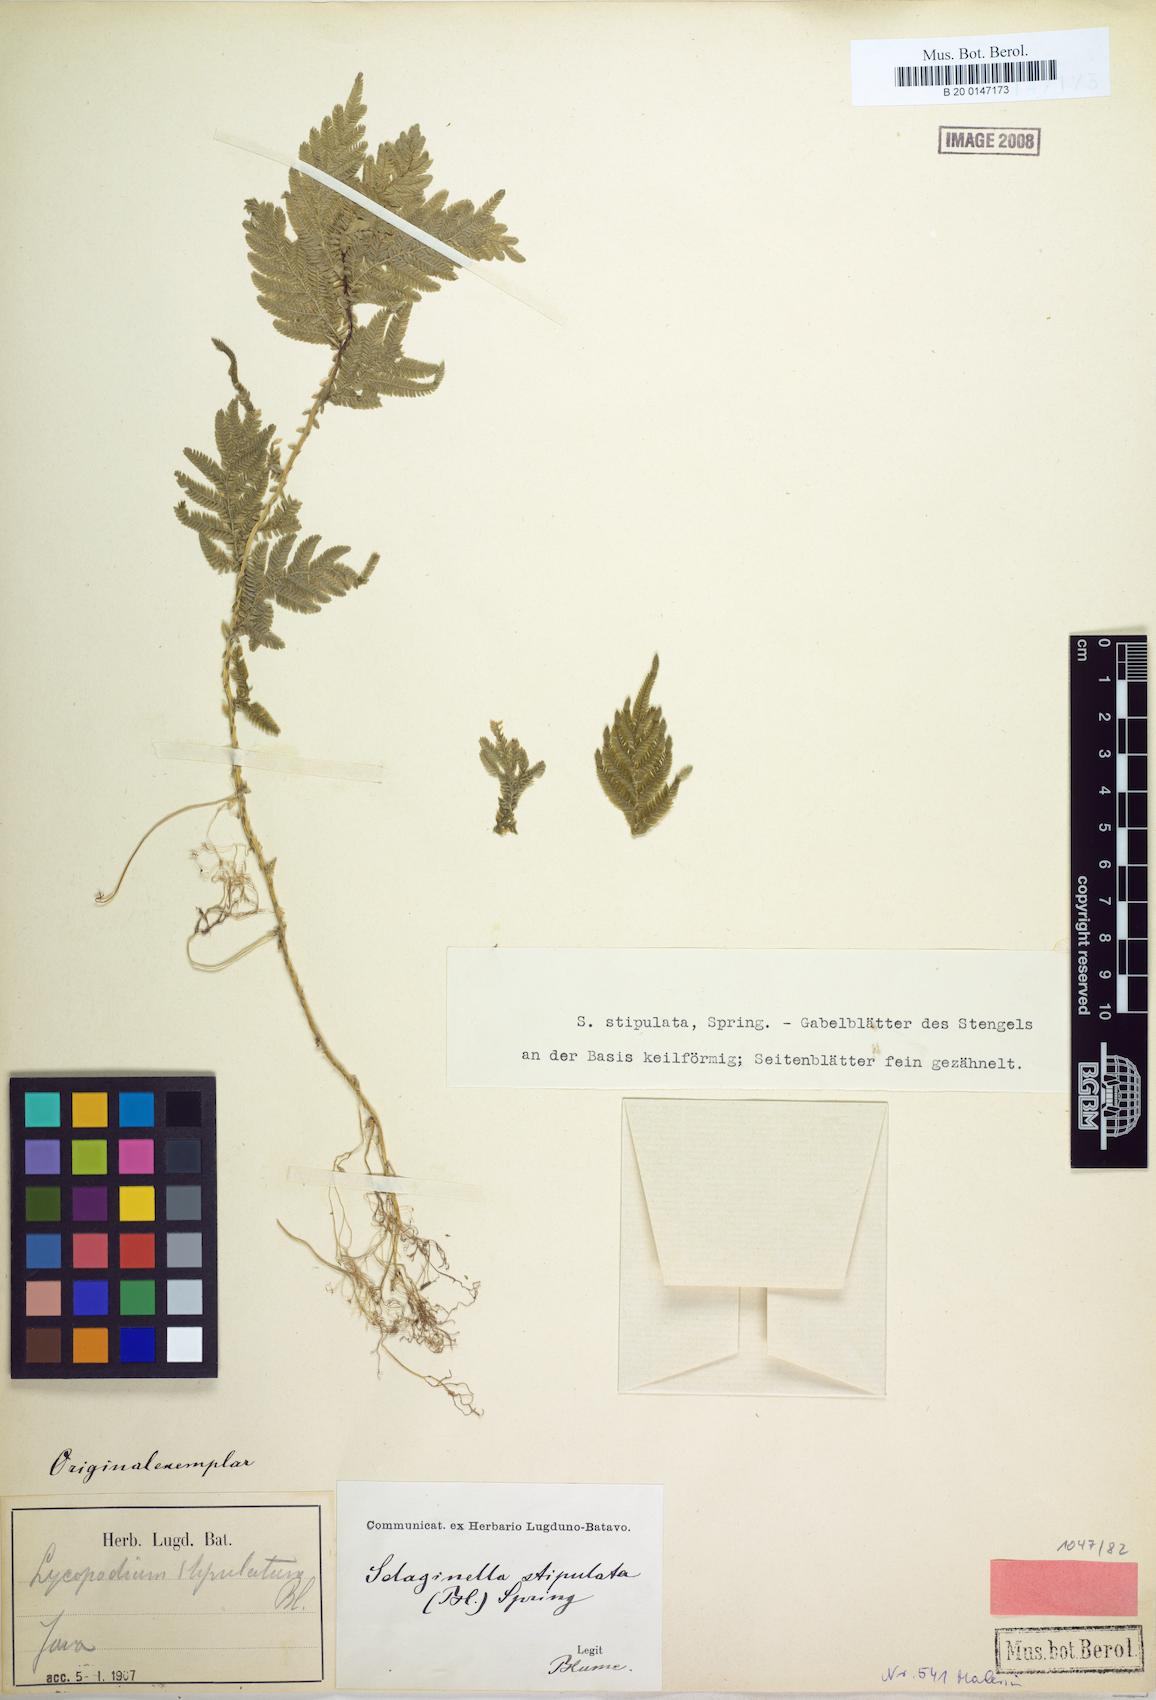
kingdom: Plantae
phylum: Tracheophyta
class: Lycopodiopsida
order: Selaginellales
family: Selaginellaceae
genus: Selaginella
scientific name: Selaginella stipulata
